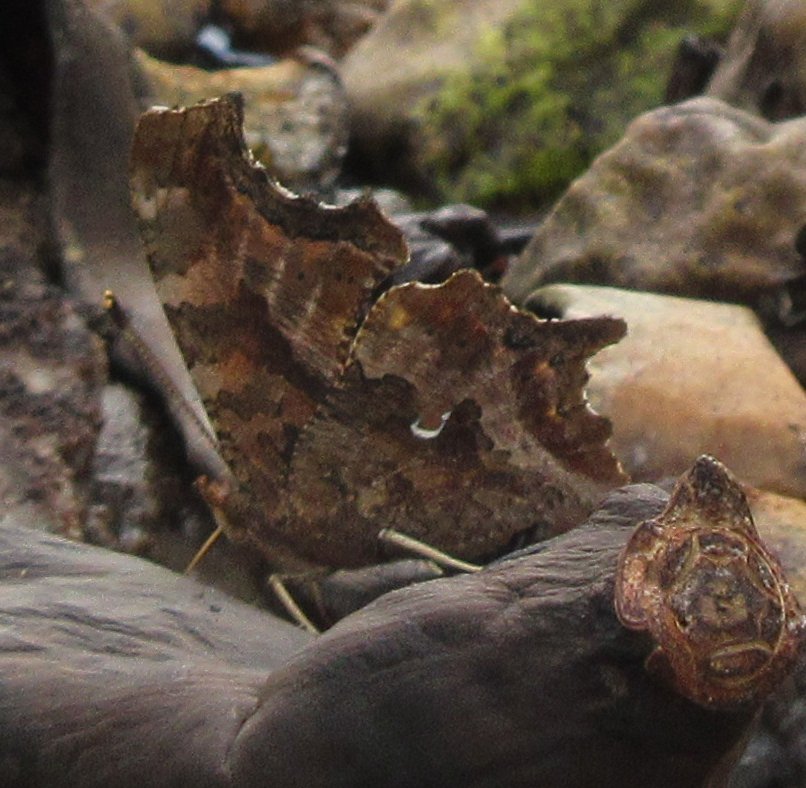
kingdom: Animalia
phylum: Arthropoda
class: Insecta
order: Lepidoptera
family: Nymphalidae
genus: Polygonia
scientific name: Polygonia comma
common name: Eastern Comma
